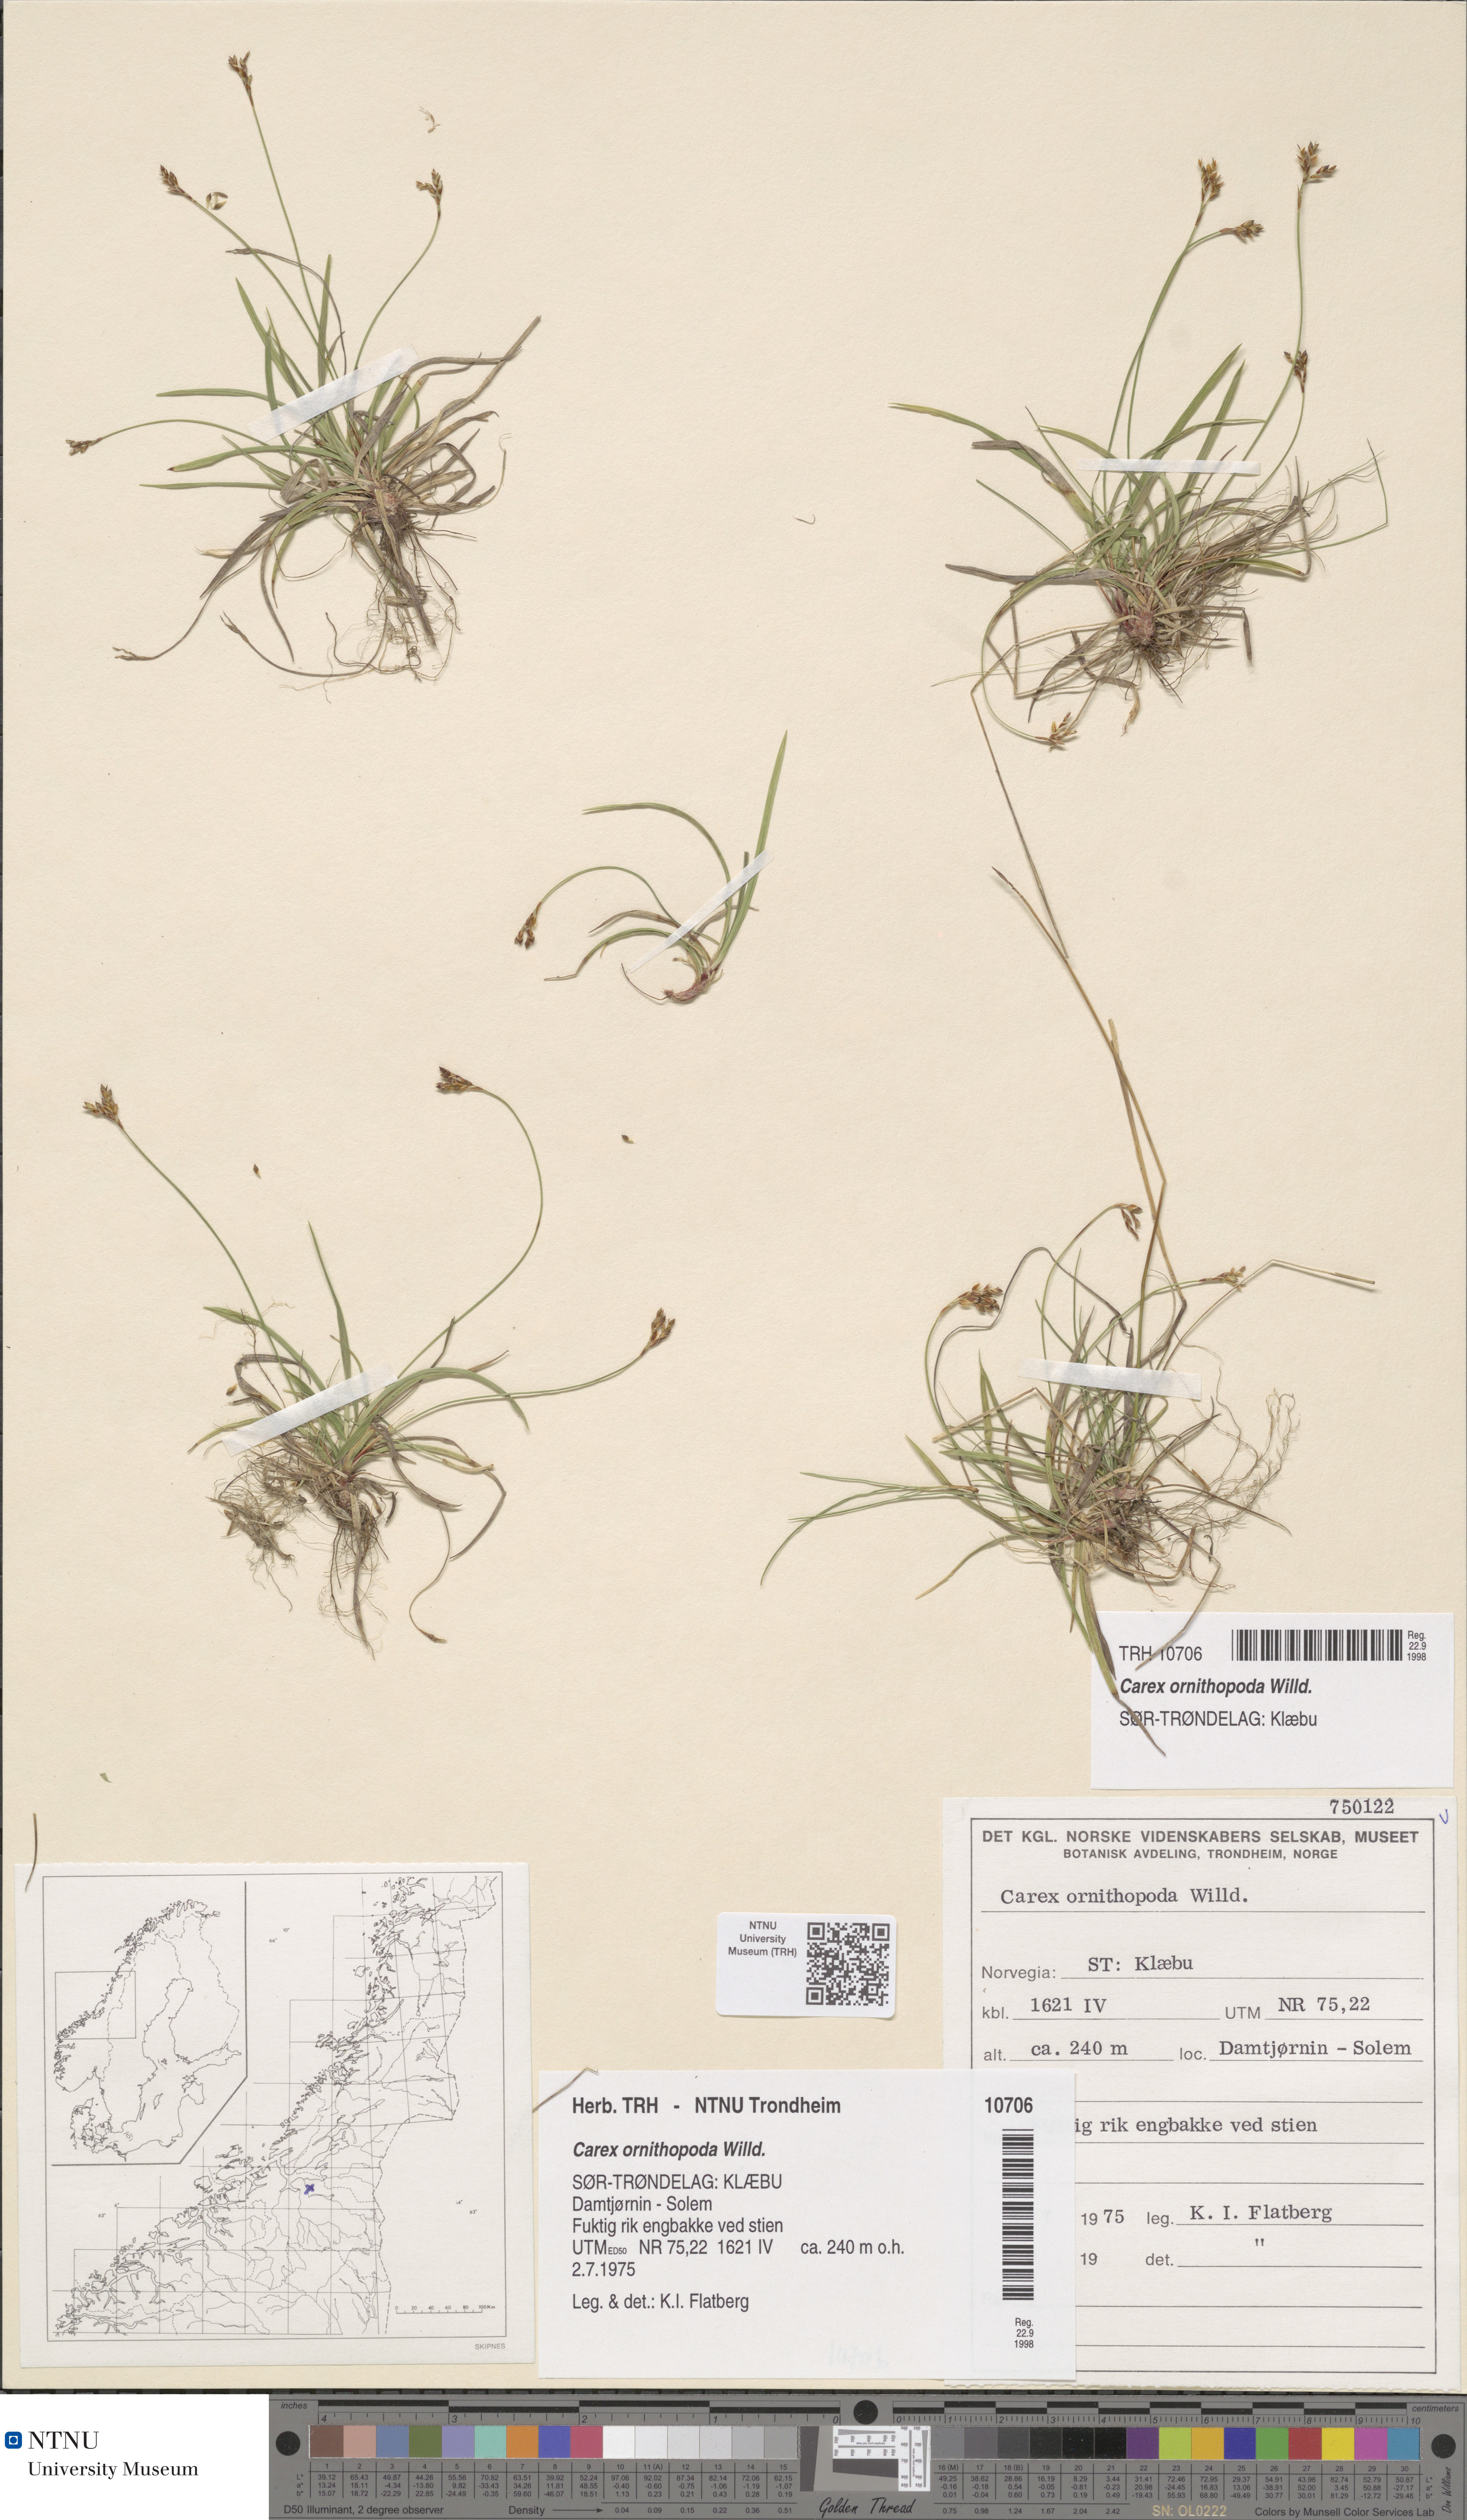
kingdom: Plantae
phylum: Tracheophyta
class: Liliopsida
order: Poales
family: Cyperaceae
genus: Carex
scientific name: Carex ornithopoda
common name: Bird's-foot sedge
